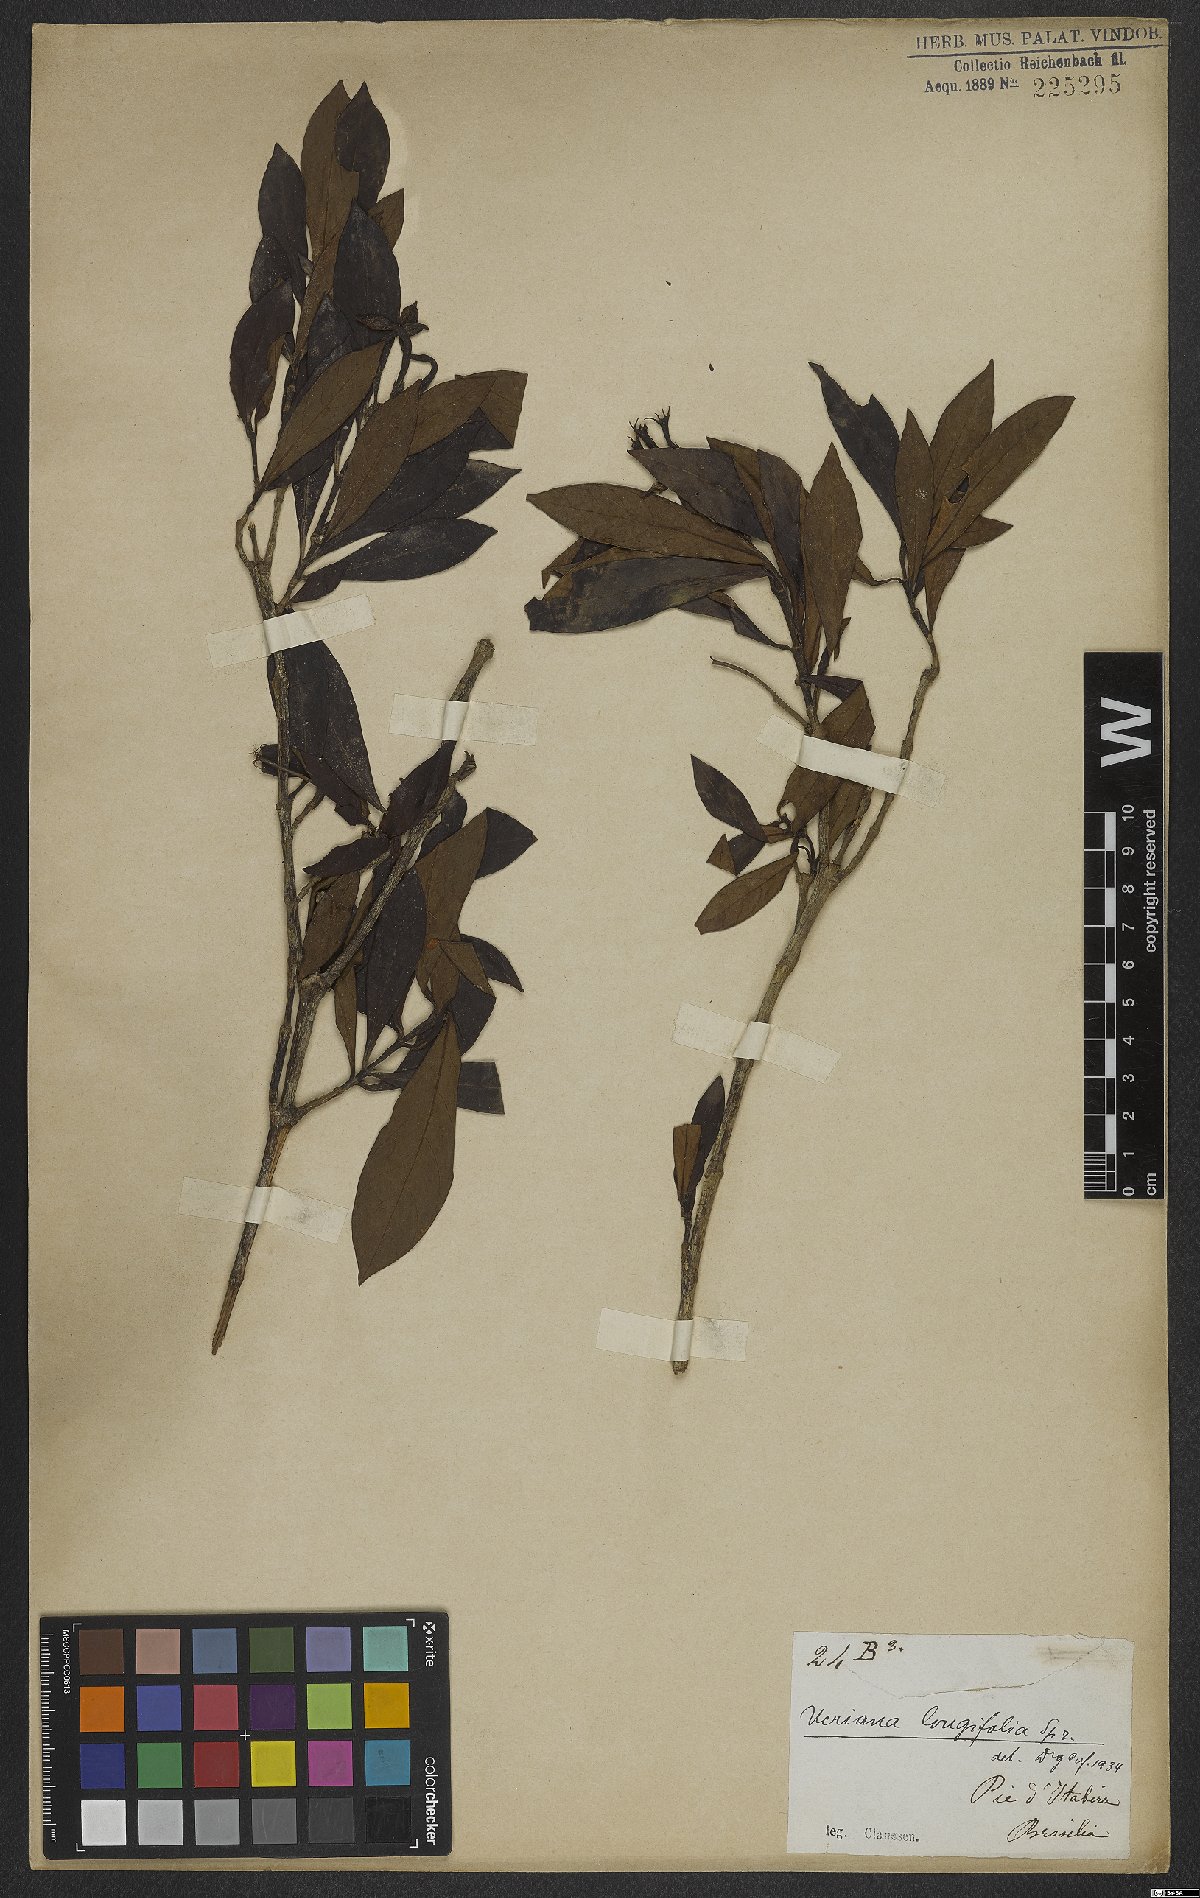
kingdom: Plantae
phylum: Tracheophyta
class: Magnoliopsida
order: Gentianales
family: Rubiaceae
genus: Augusta
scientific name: Augusta longifolia
